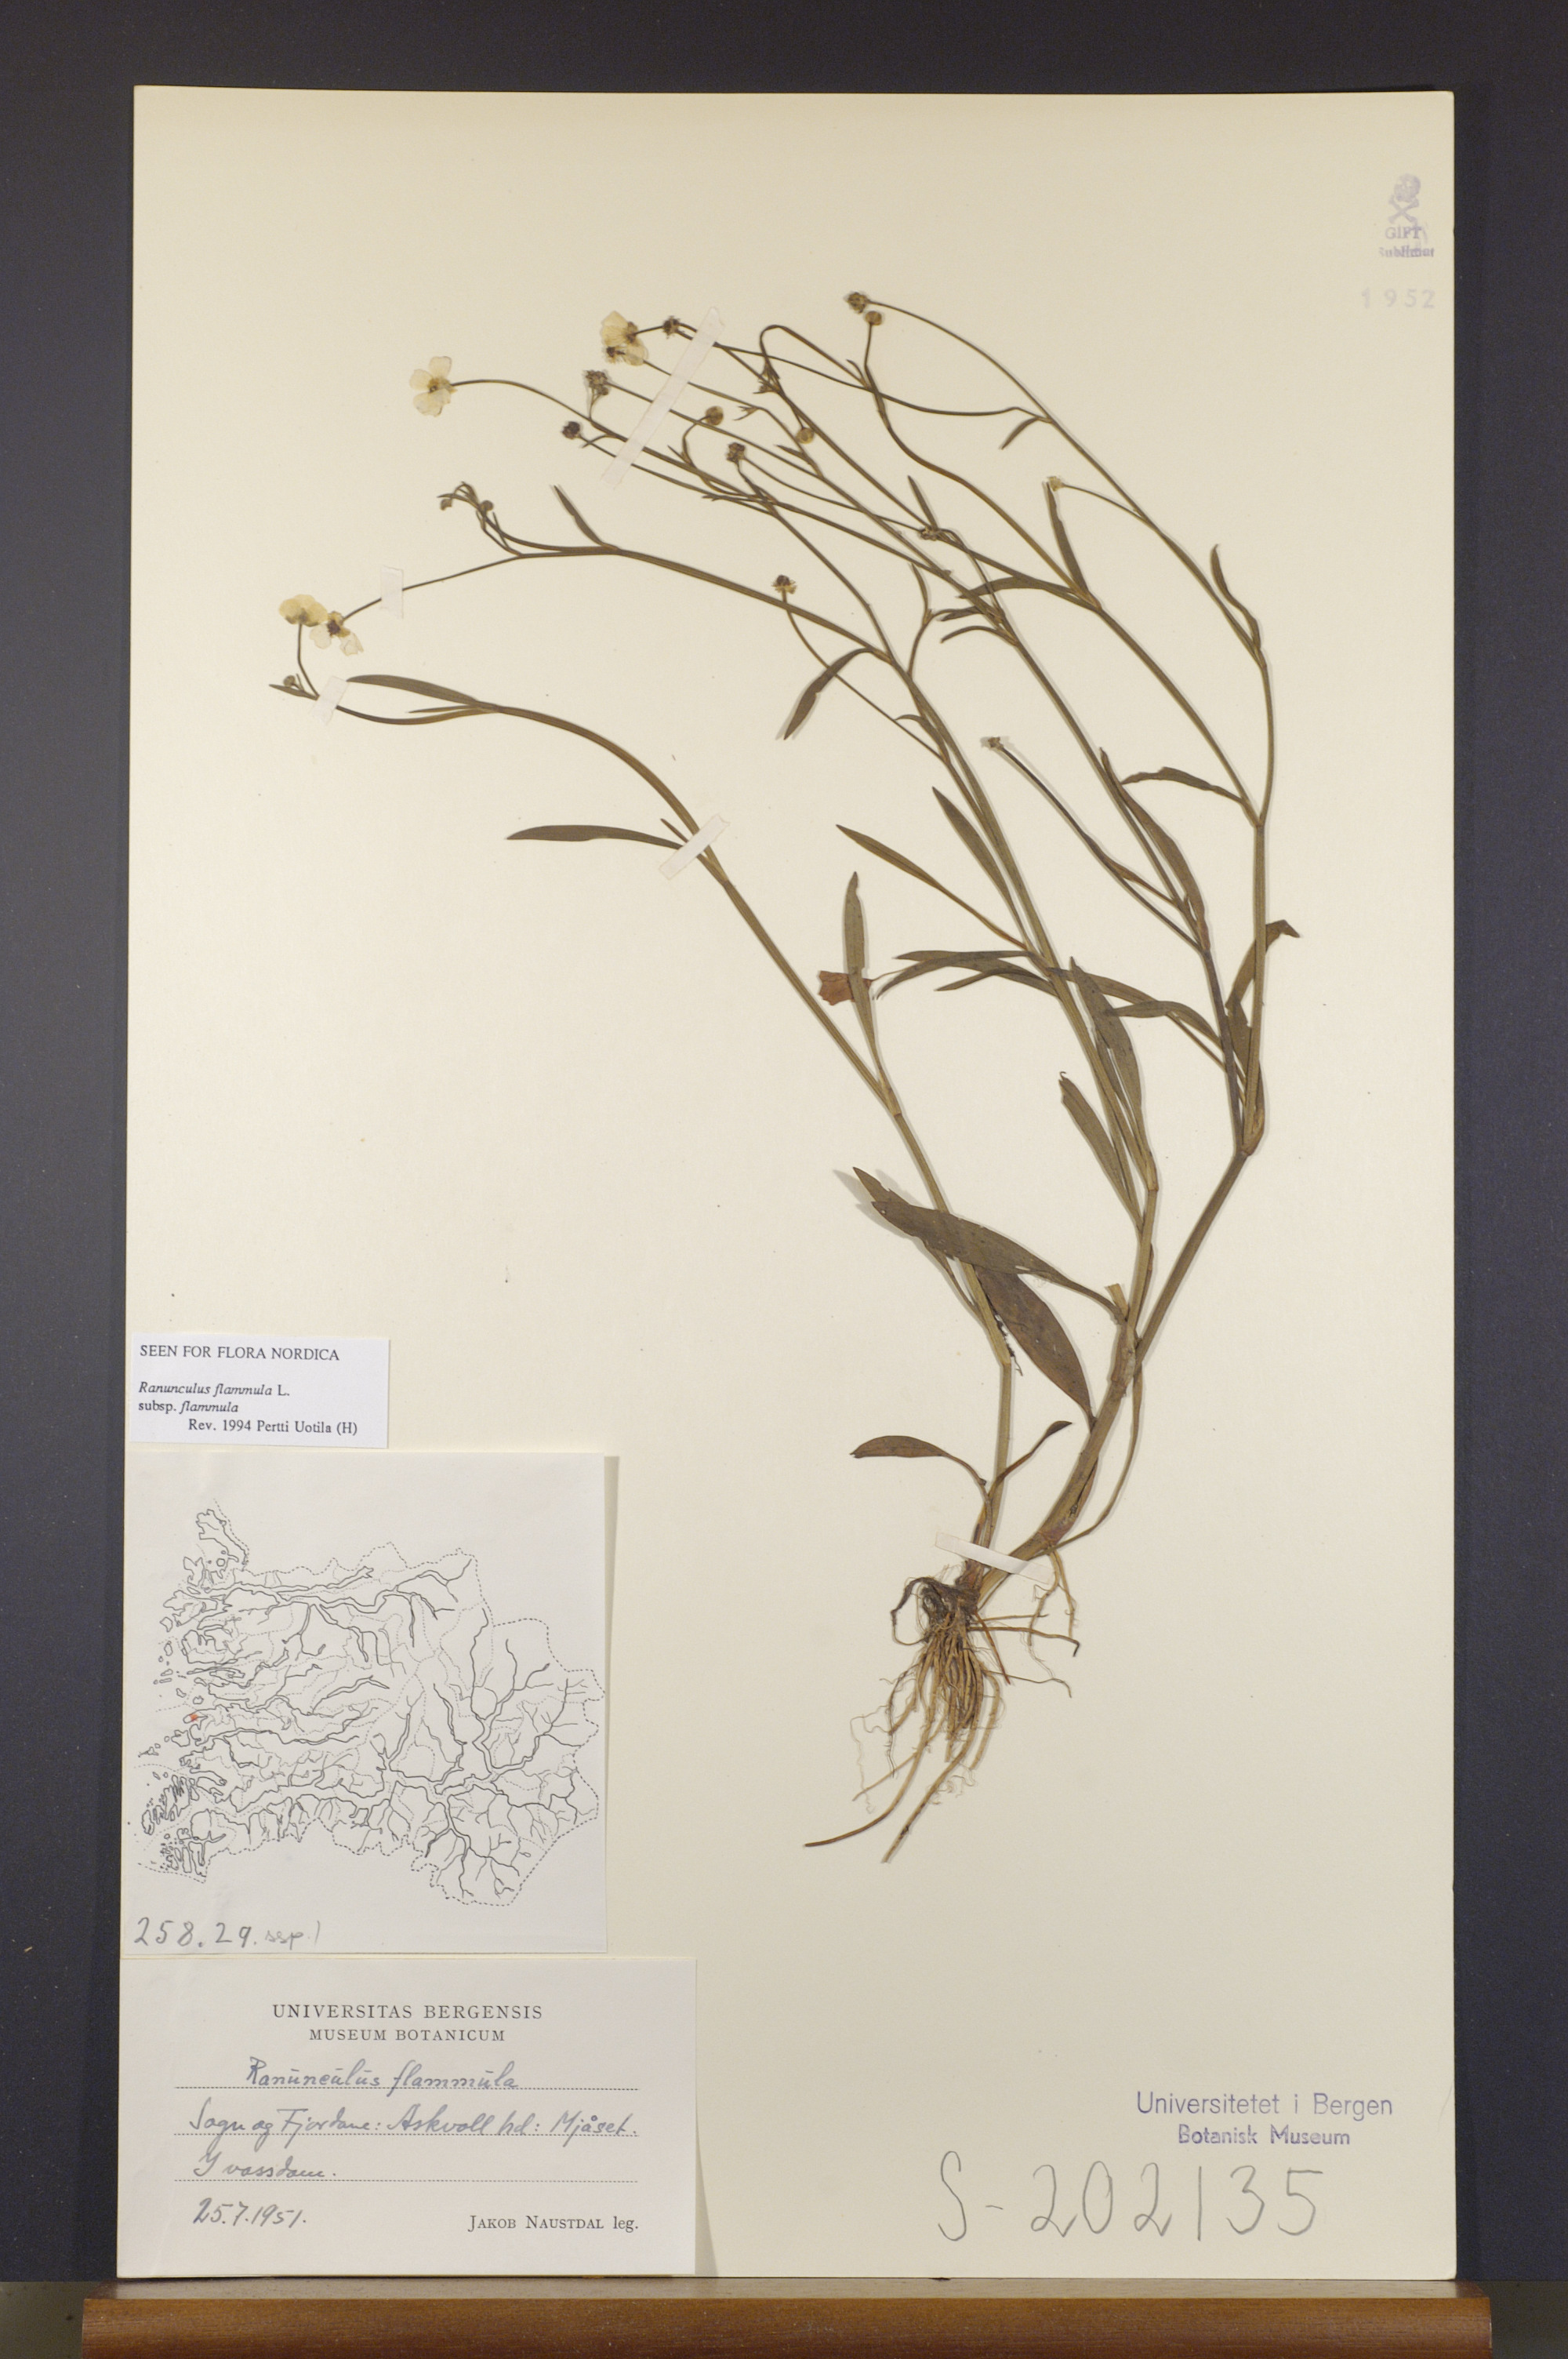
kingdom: Plantae
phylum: Tracheophyta
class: Magnoliopsida
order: Ranunculales
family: Ranunculaceae
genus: Ranunculus
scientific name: Ranunculus flammula
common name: Lesser spearwort
